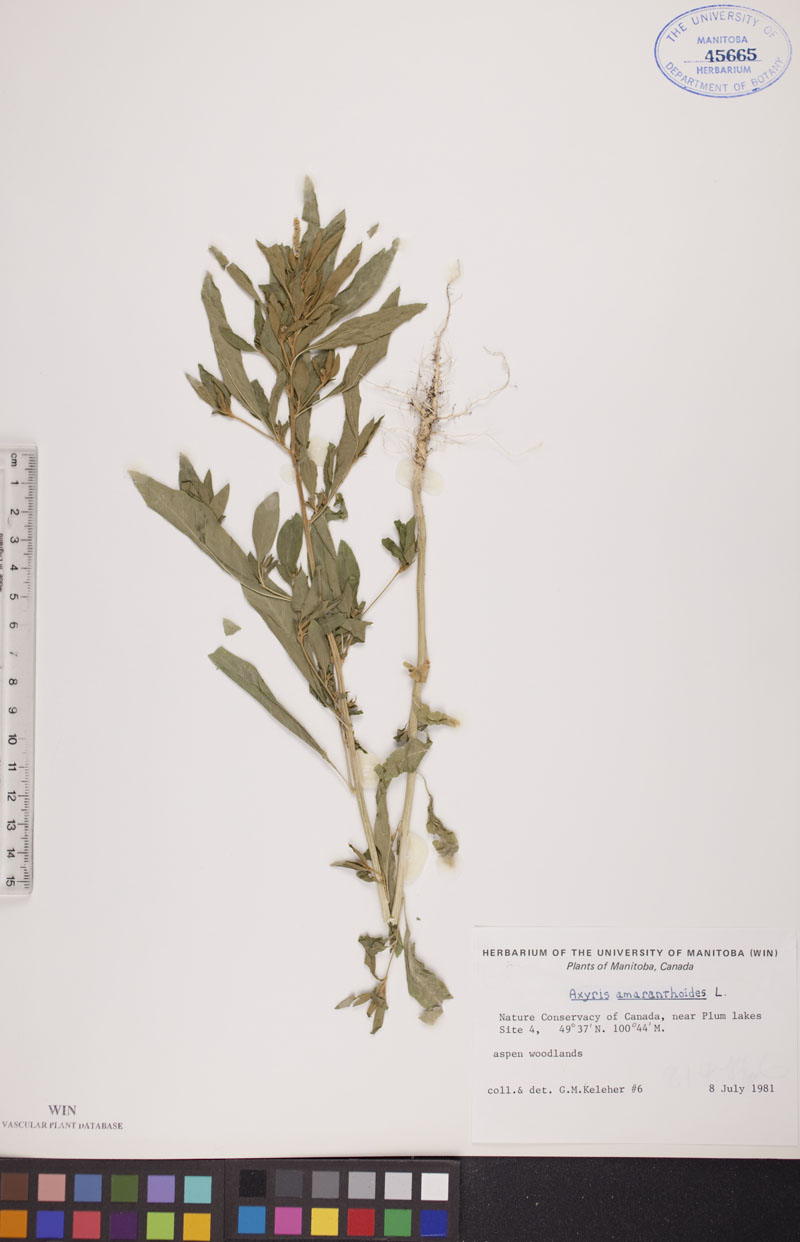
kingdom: Plantae
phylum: Tracheophyta
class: Magnoliopsida
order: Caryophyllales
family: Amaranthaceae
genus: Axyris
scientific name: Axyris amaranthoides
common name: Russian pigweed
